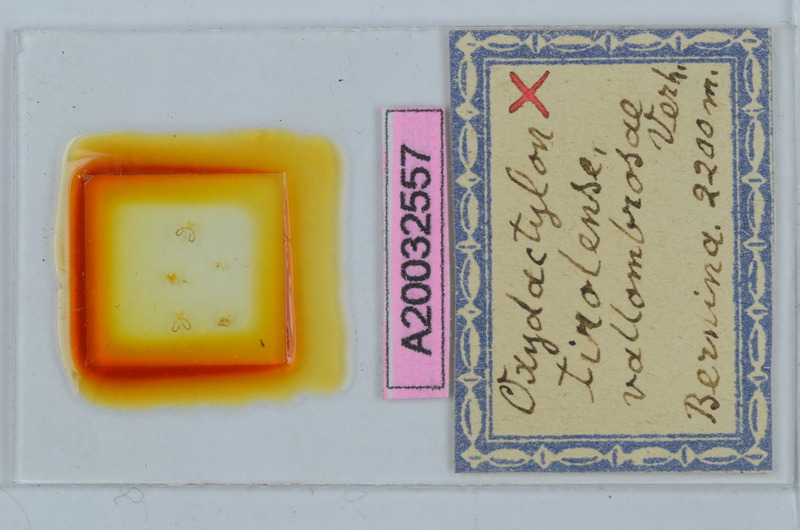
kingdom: Animalia
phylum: Arthropoda
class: Diplopoda
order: Chordeumatida
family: Craspedosomatidae
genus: Iulogona
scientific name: Iulogona tirolensis
